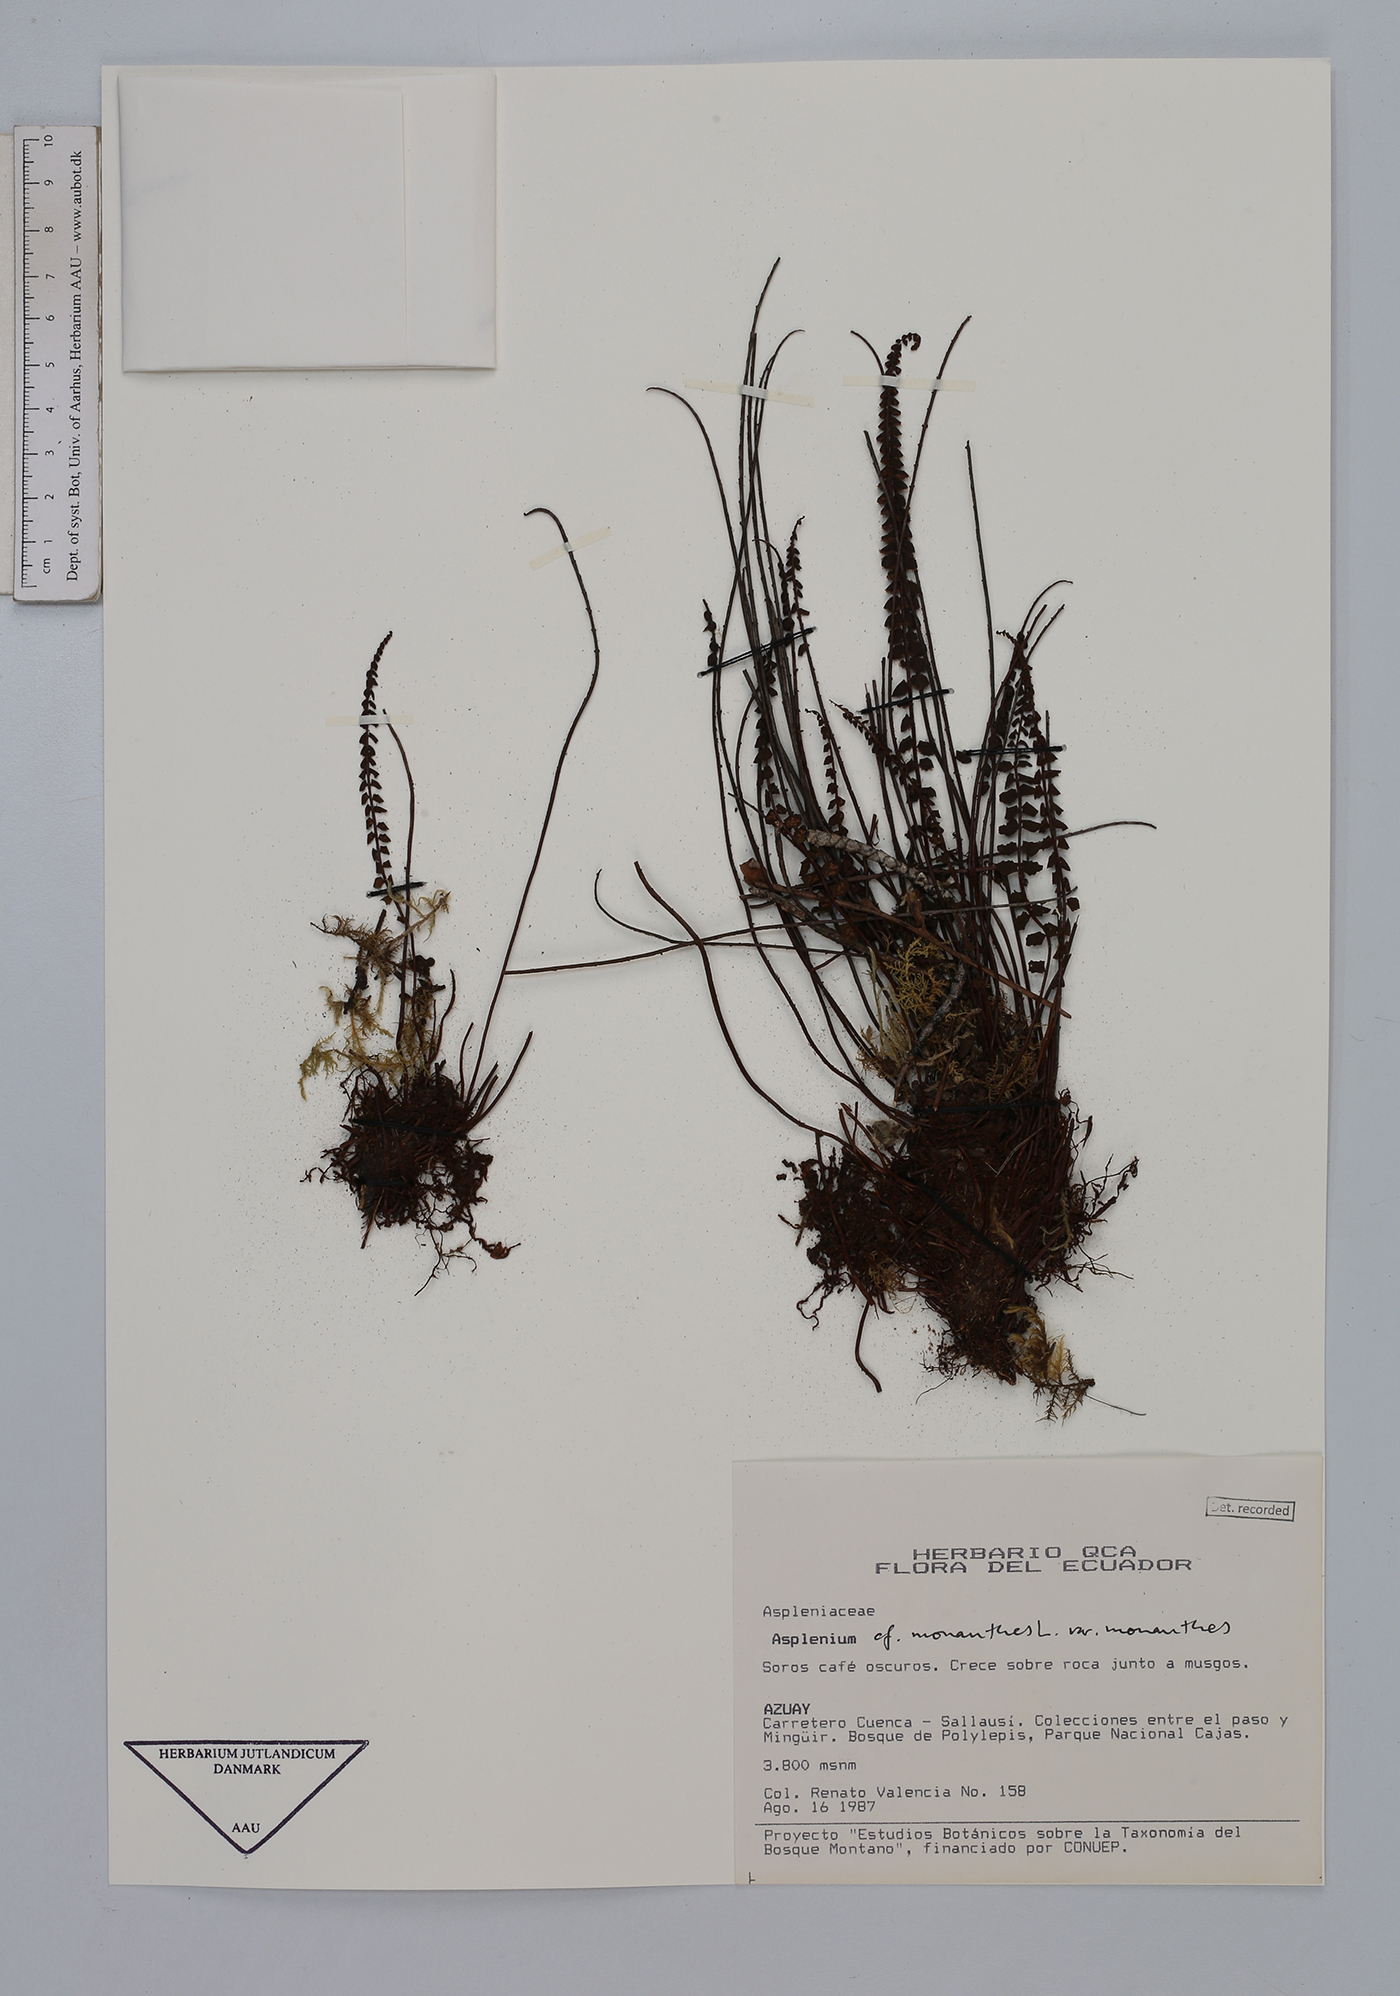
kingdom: Plantae
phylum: Tracheophyta
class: Polypodiopsida
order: Polypodiales
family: Aspleniaceae
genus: Asplenium
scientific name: Asplenium monanthes
